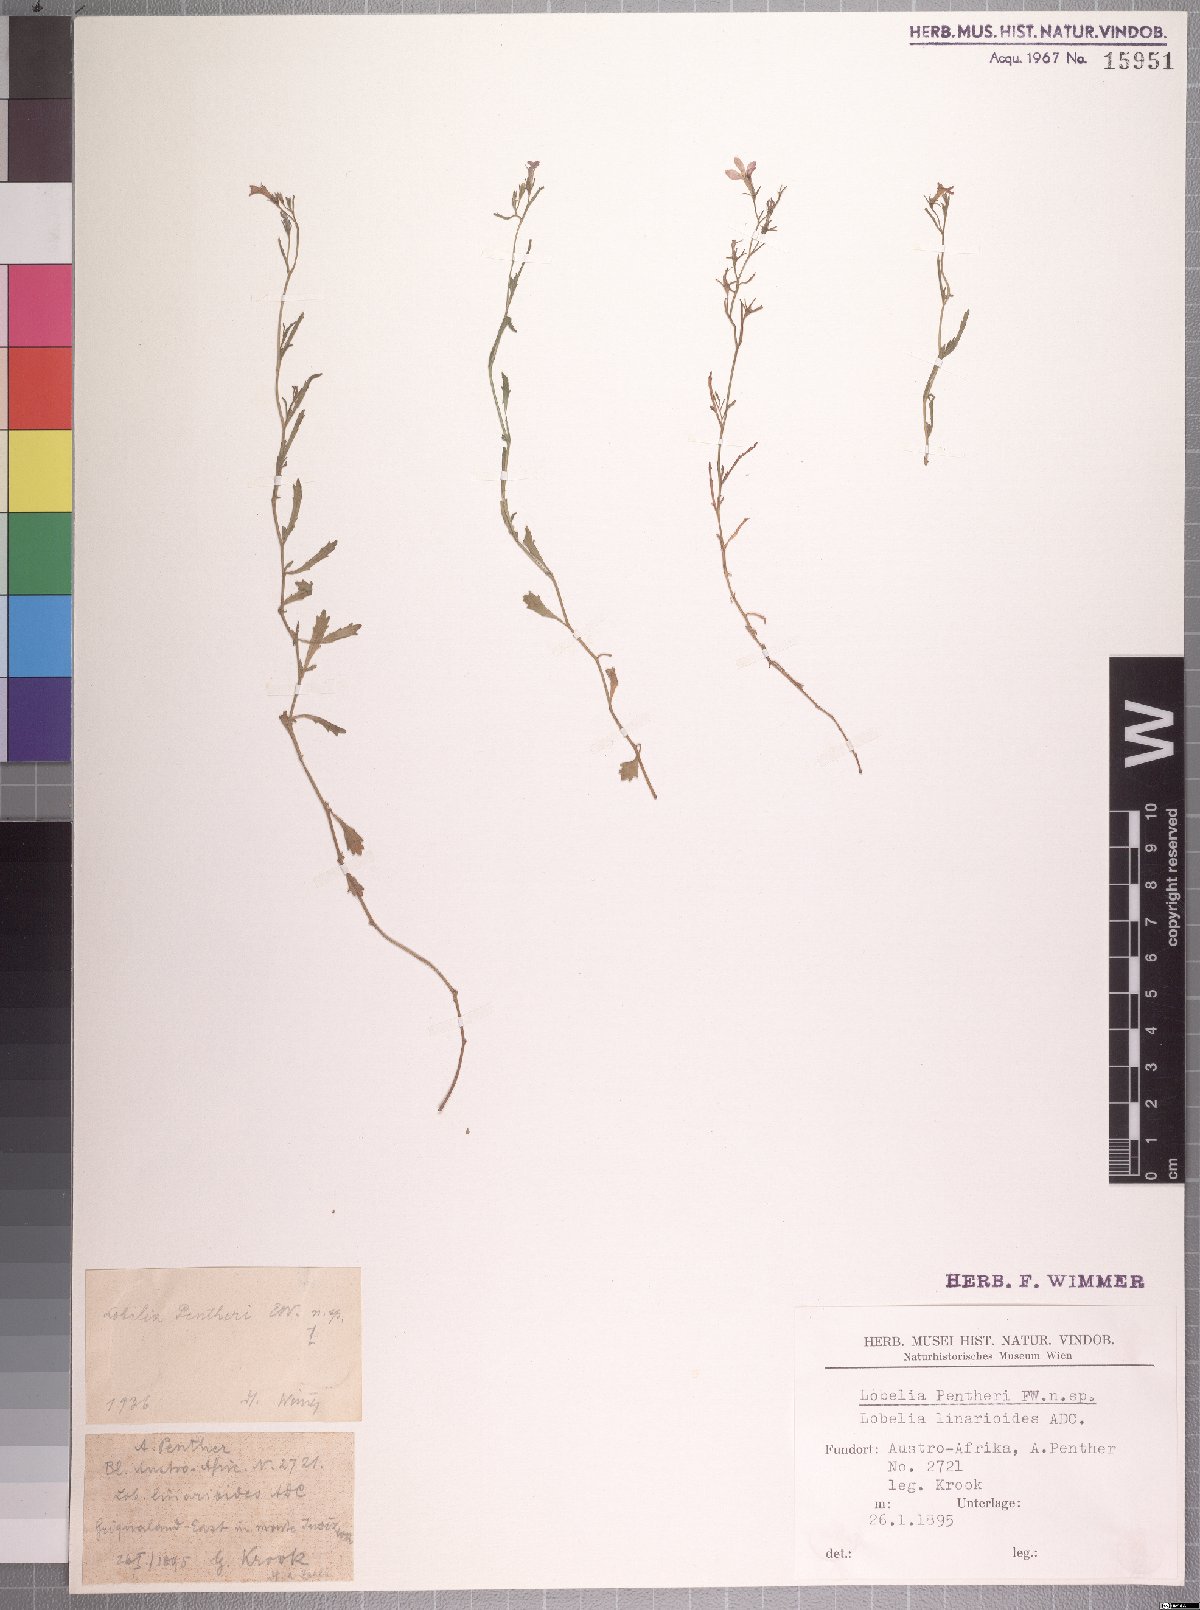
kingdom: Plantae
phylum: Tracheophyta
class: Magnoliopsida
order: Asterales
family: Campanulaceae
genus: Lobelia
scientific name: Lobelia flaccida
